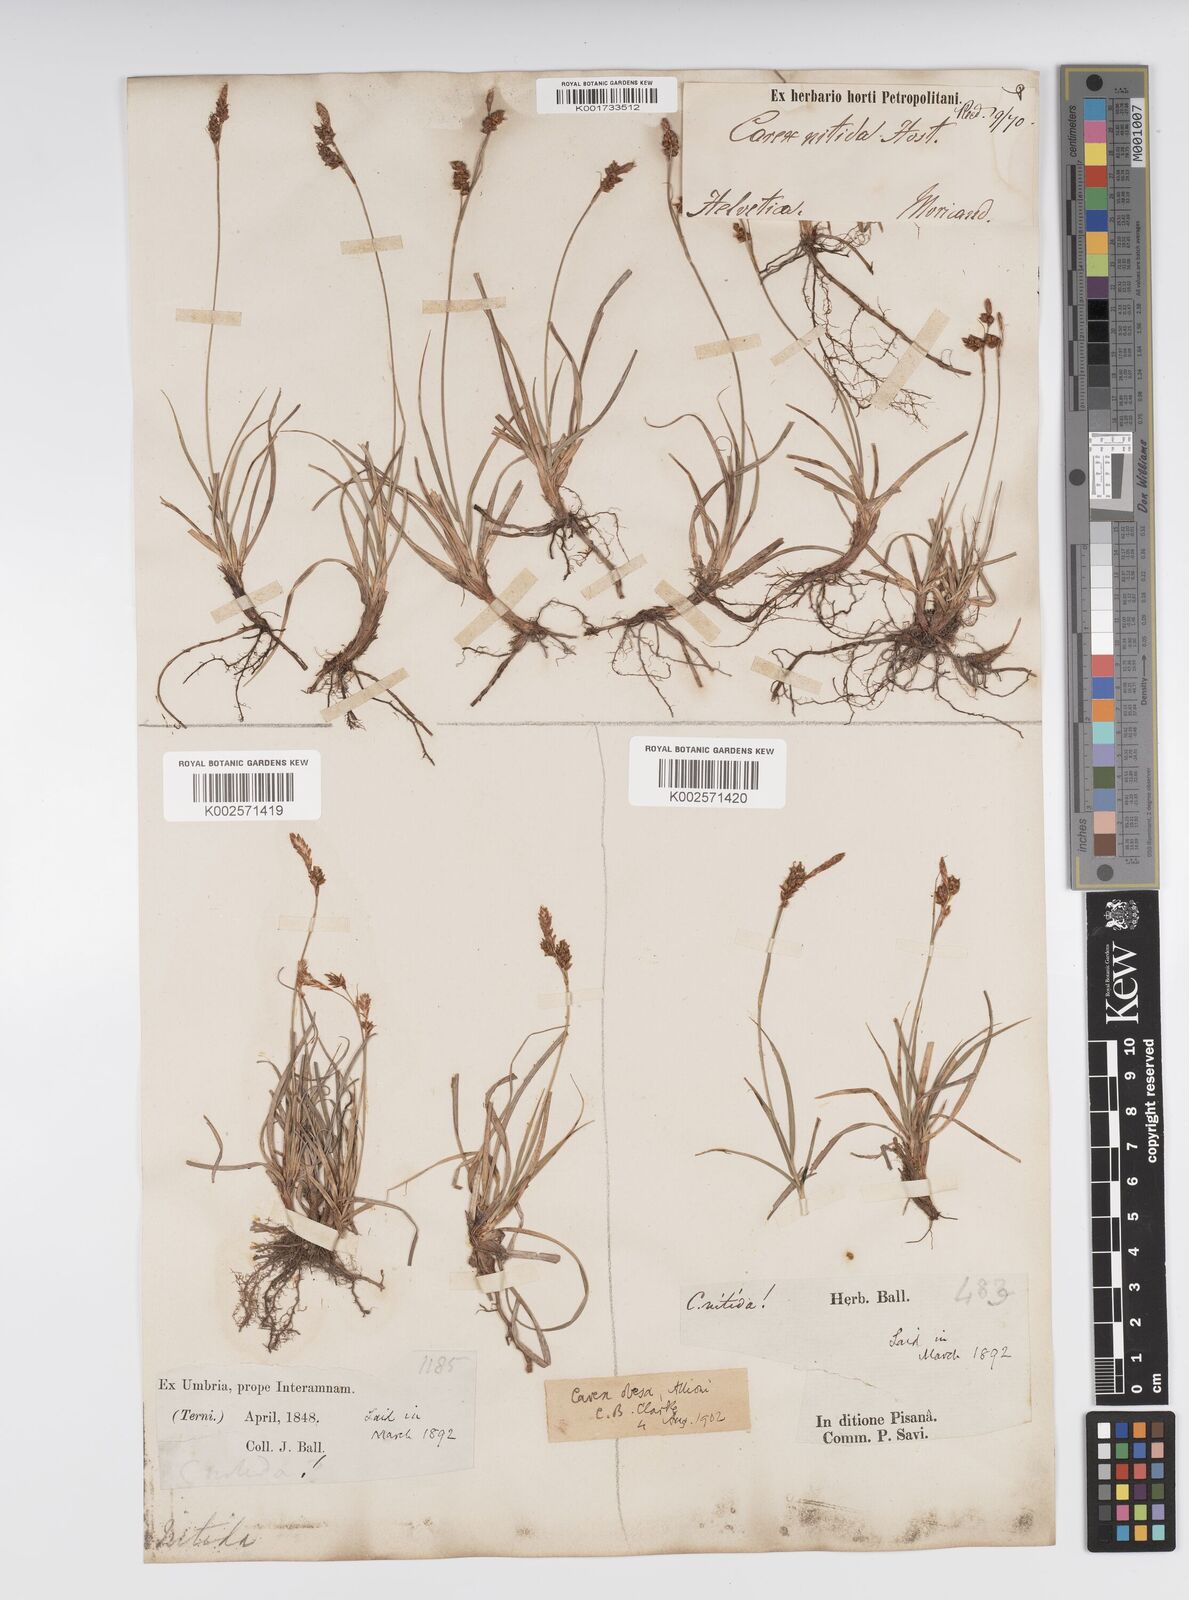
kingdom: Plantae
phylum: Tracheophyta
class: Liliopsida
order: Poales
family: Cyperaceae
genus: Carex
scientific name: Carex liparocarpos
